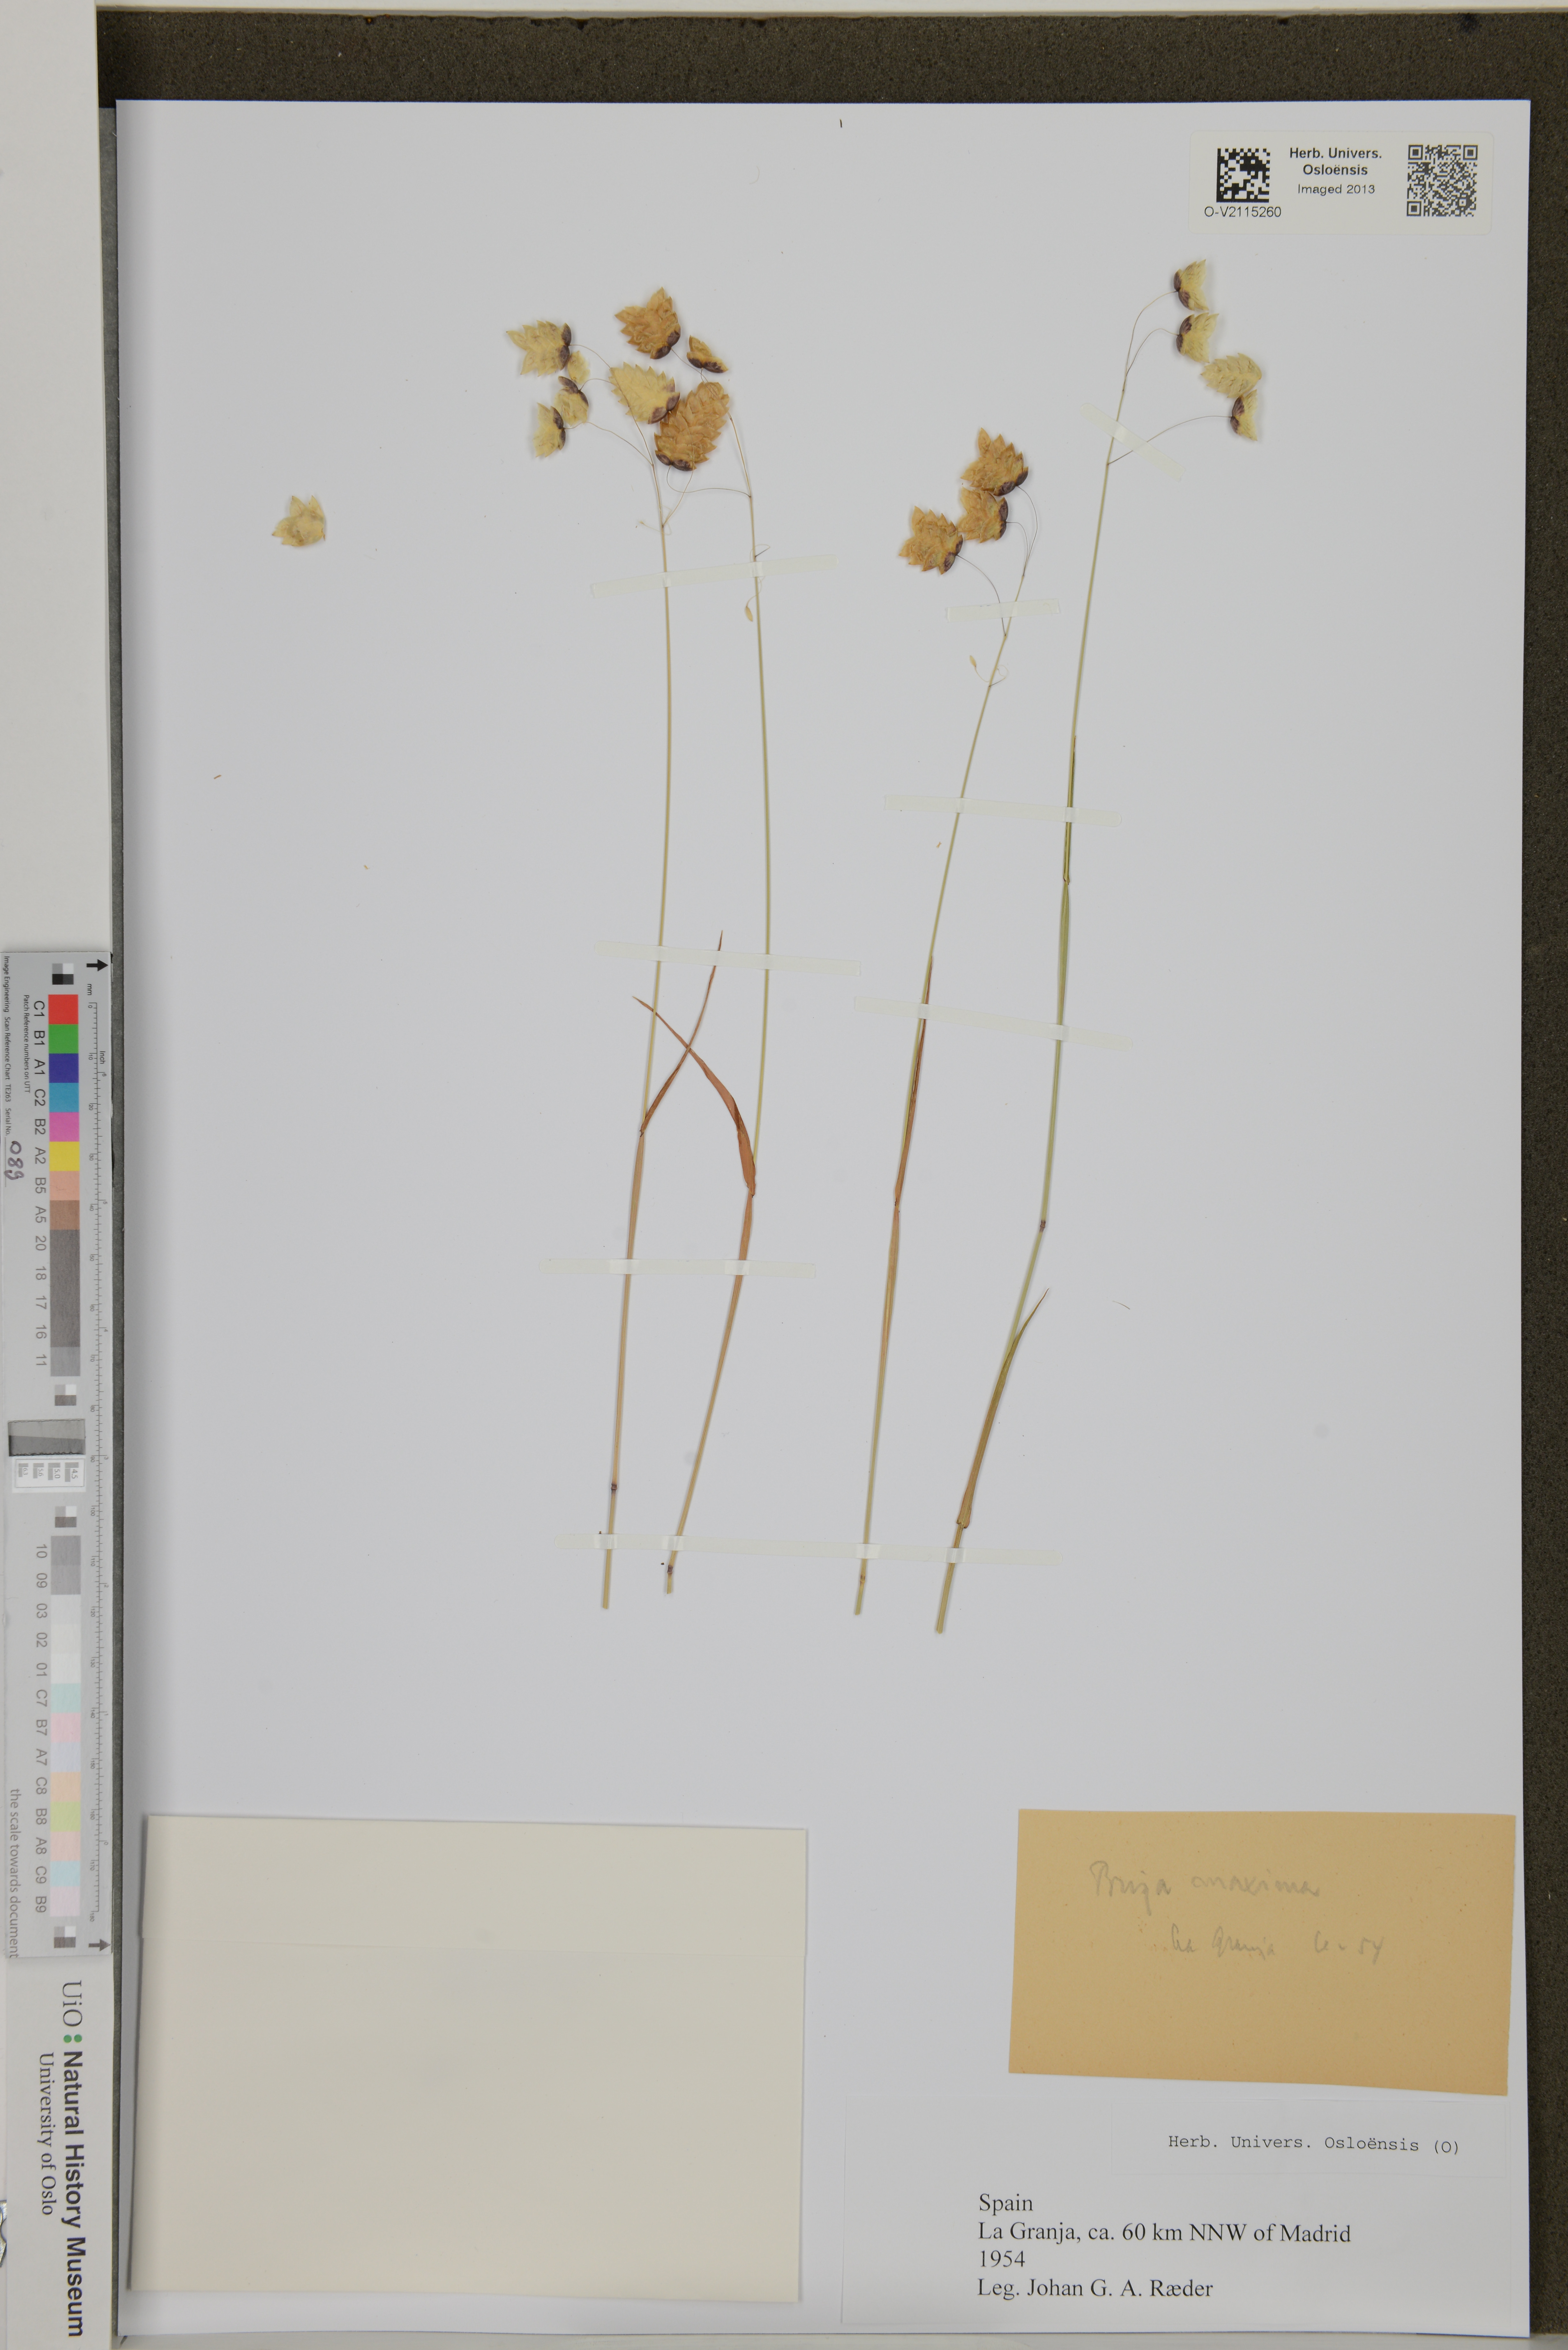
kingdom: Plantae
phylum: Tracheophyta
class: Liliopsida
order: Poales
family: Poaceae
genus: Briza
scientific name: Briza maxima
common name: Big quakinggrass
